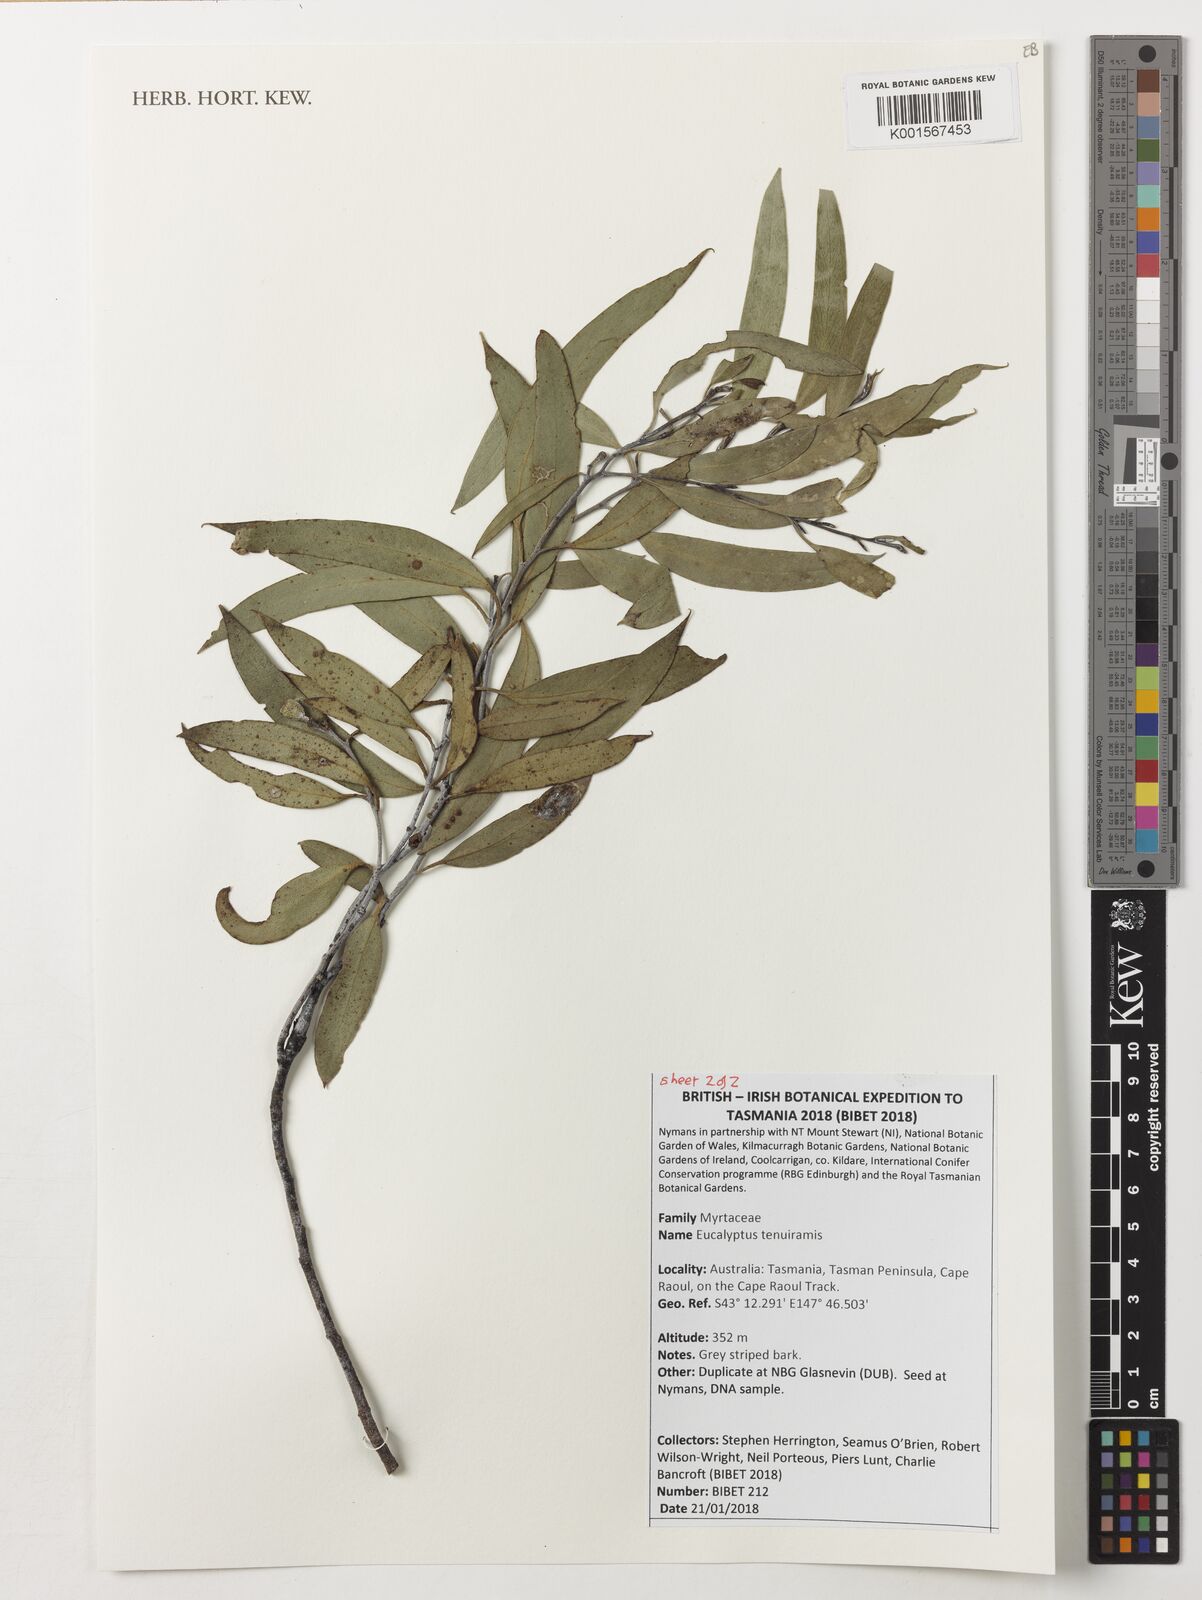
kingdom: Plantae
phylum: Tracheophyta
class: Magnoliopsida
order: Myrtales
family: Myrtaceae
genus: Eucalyptus
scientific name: Eucalyptus tenuiramis
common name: Silver peppermint
